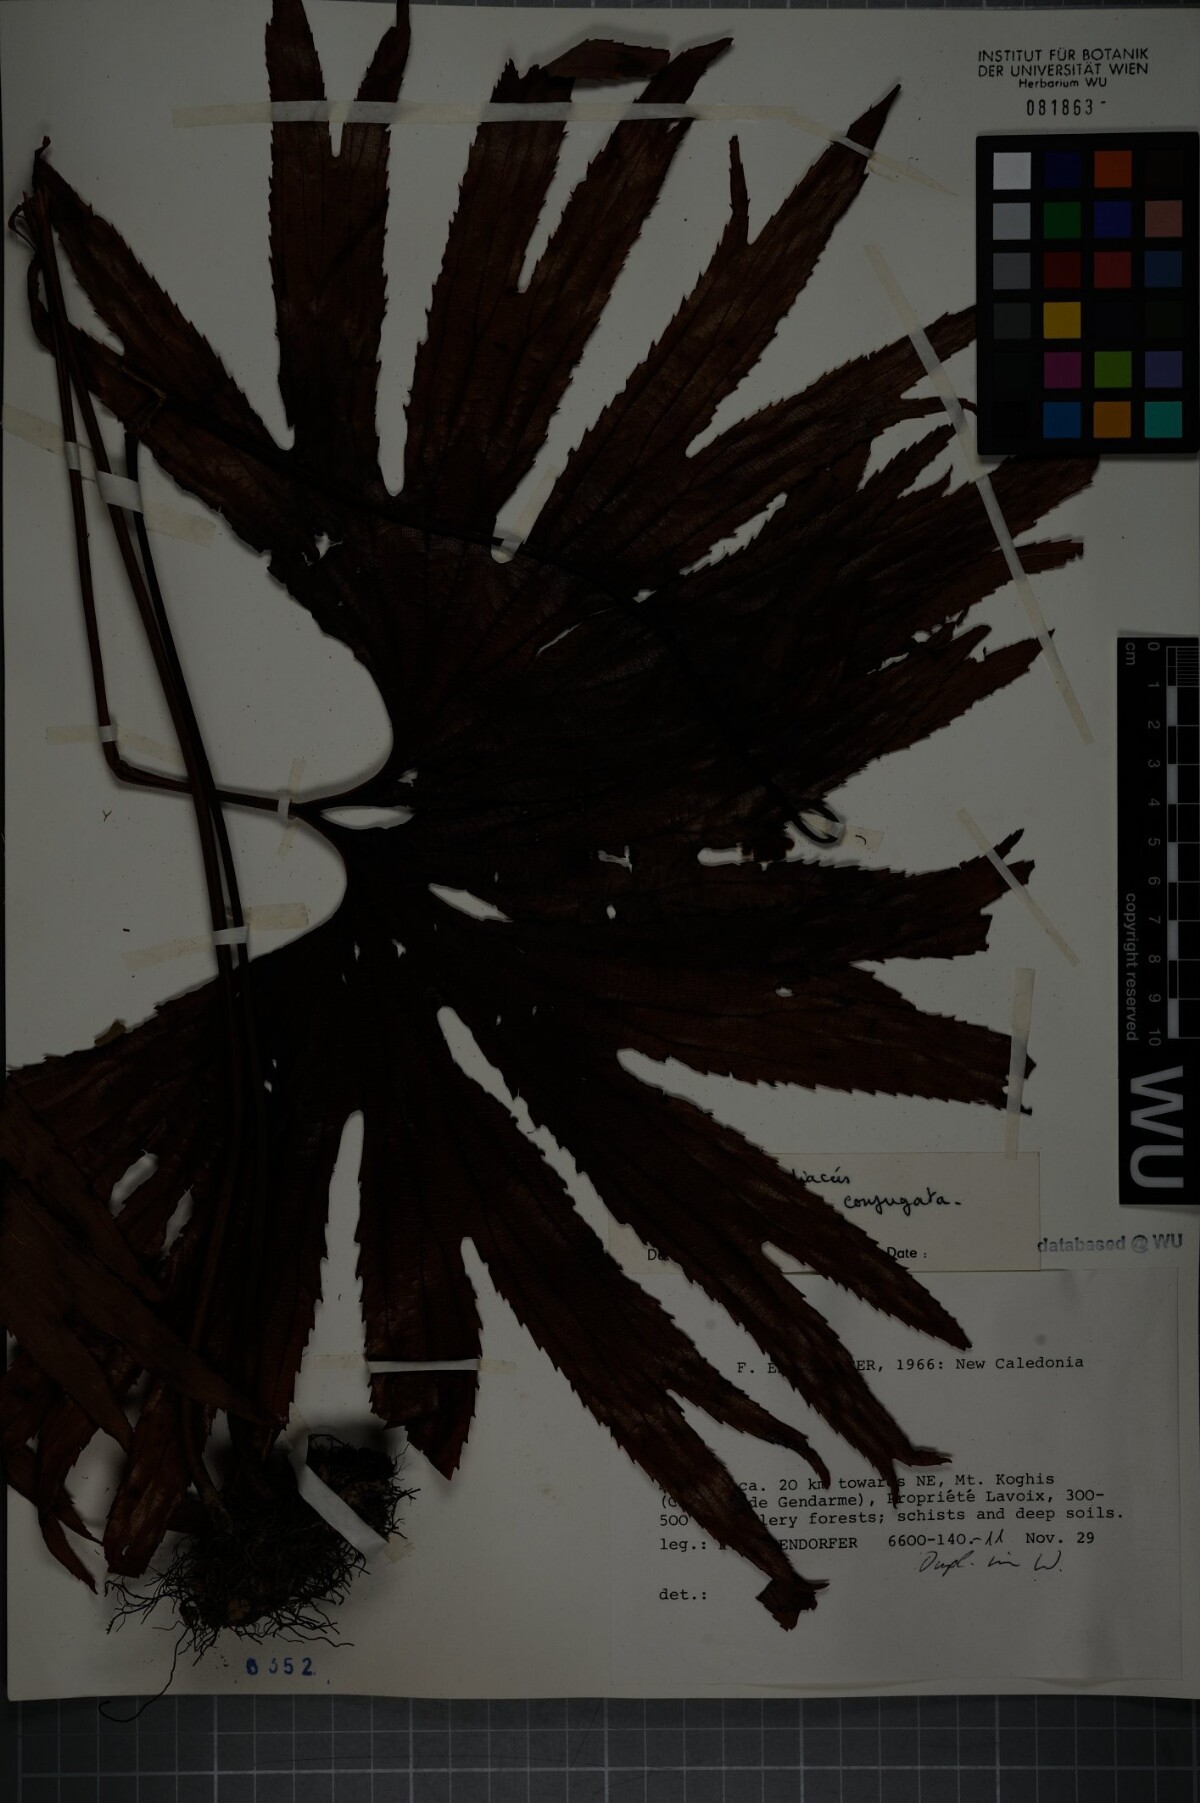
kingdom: Plantae
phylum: Tracheophyta
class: Polypodiopsida
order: Gleicheniales
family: Dipteridaceae
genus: Dipteris
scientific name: Dipteris conjugata
